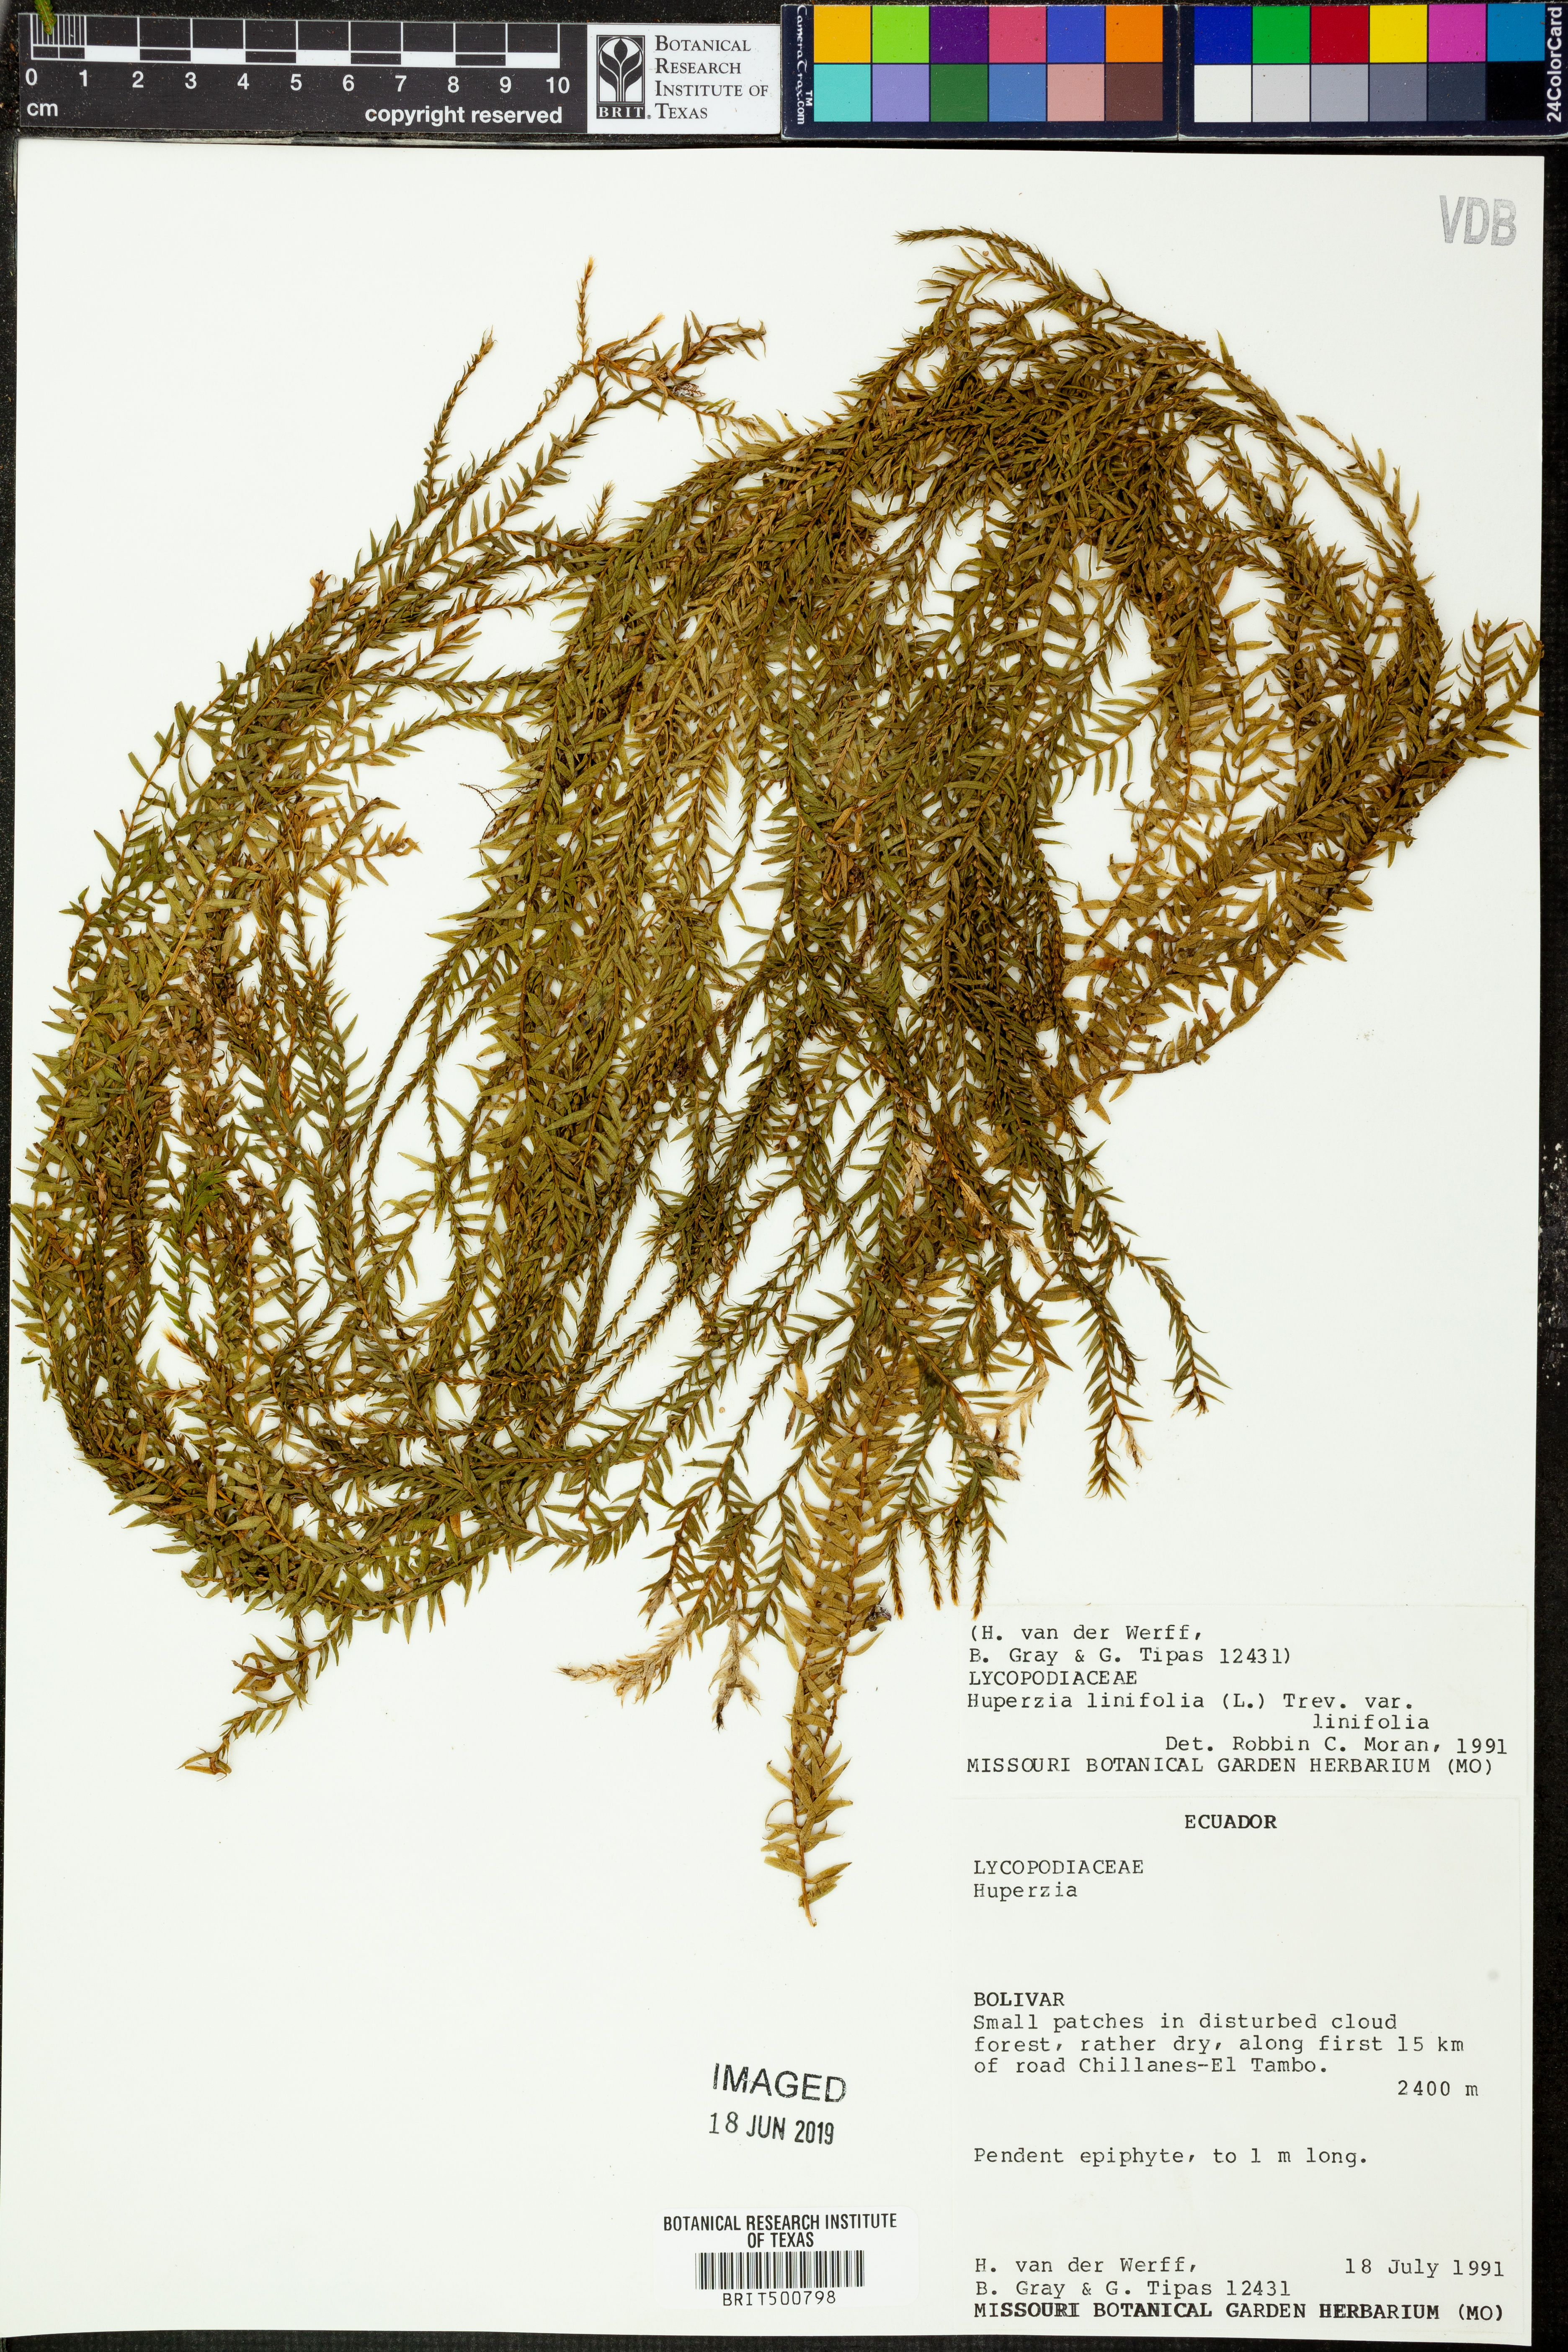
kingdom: Plantae
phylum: Tracheophyta
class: Lycopodiopsida
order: Lycopodiales
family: Lycopodiaceae
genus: Phlegmariurus
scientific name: Phlegmariurus linifolius
